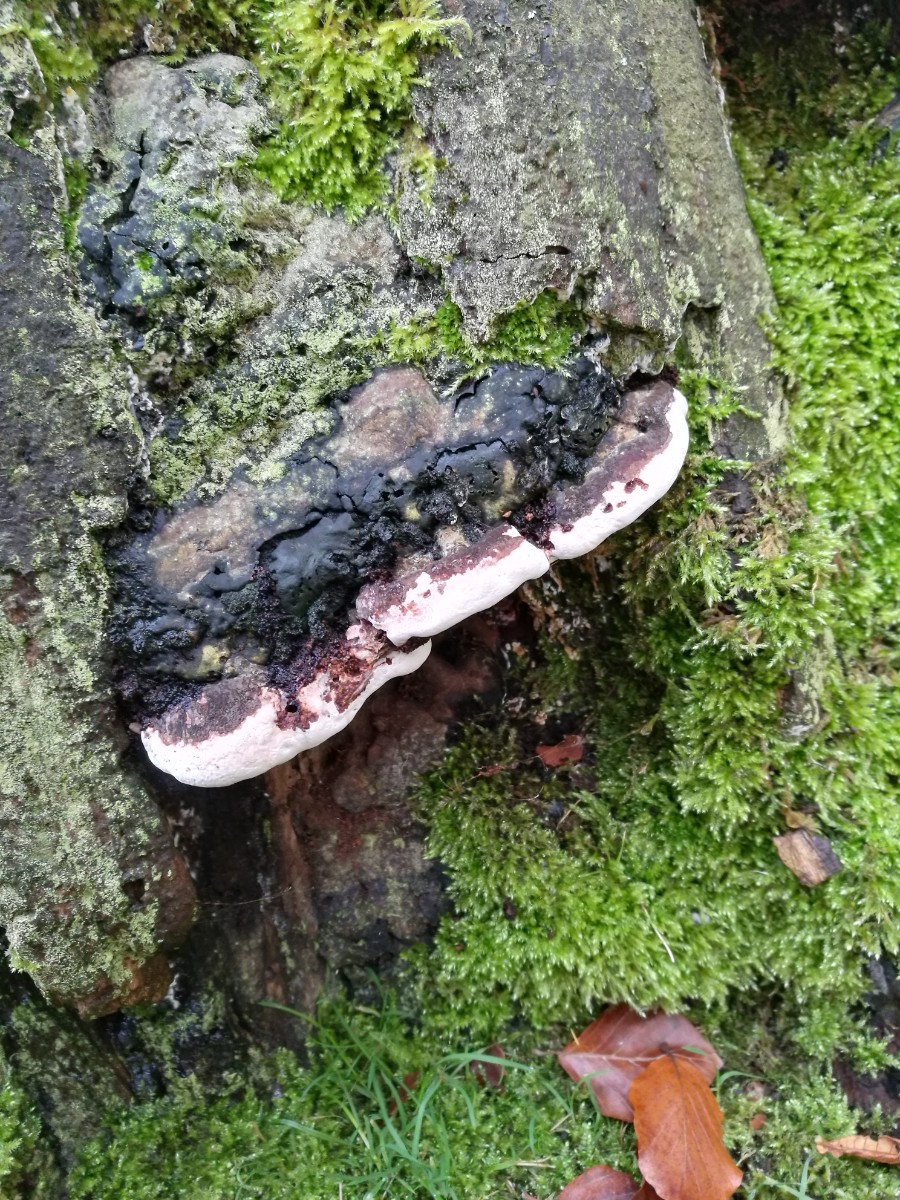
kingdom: Fungi
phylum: Basidiomycota
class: Agaricomycetes
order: Polyporales
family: Polyporaceae
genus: Ganoderma
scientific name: Ganoderma
